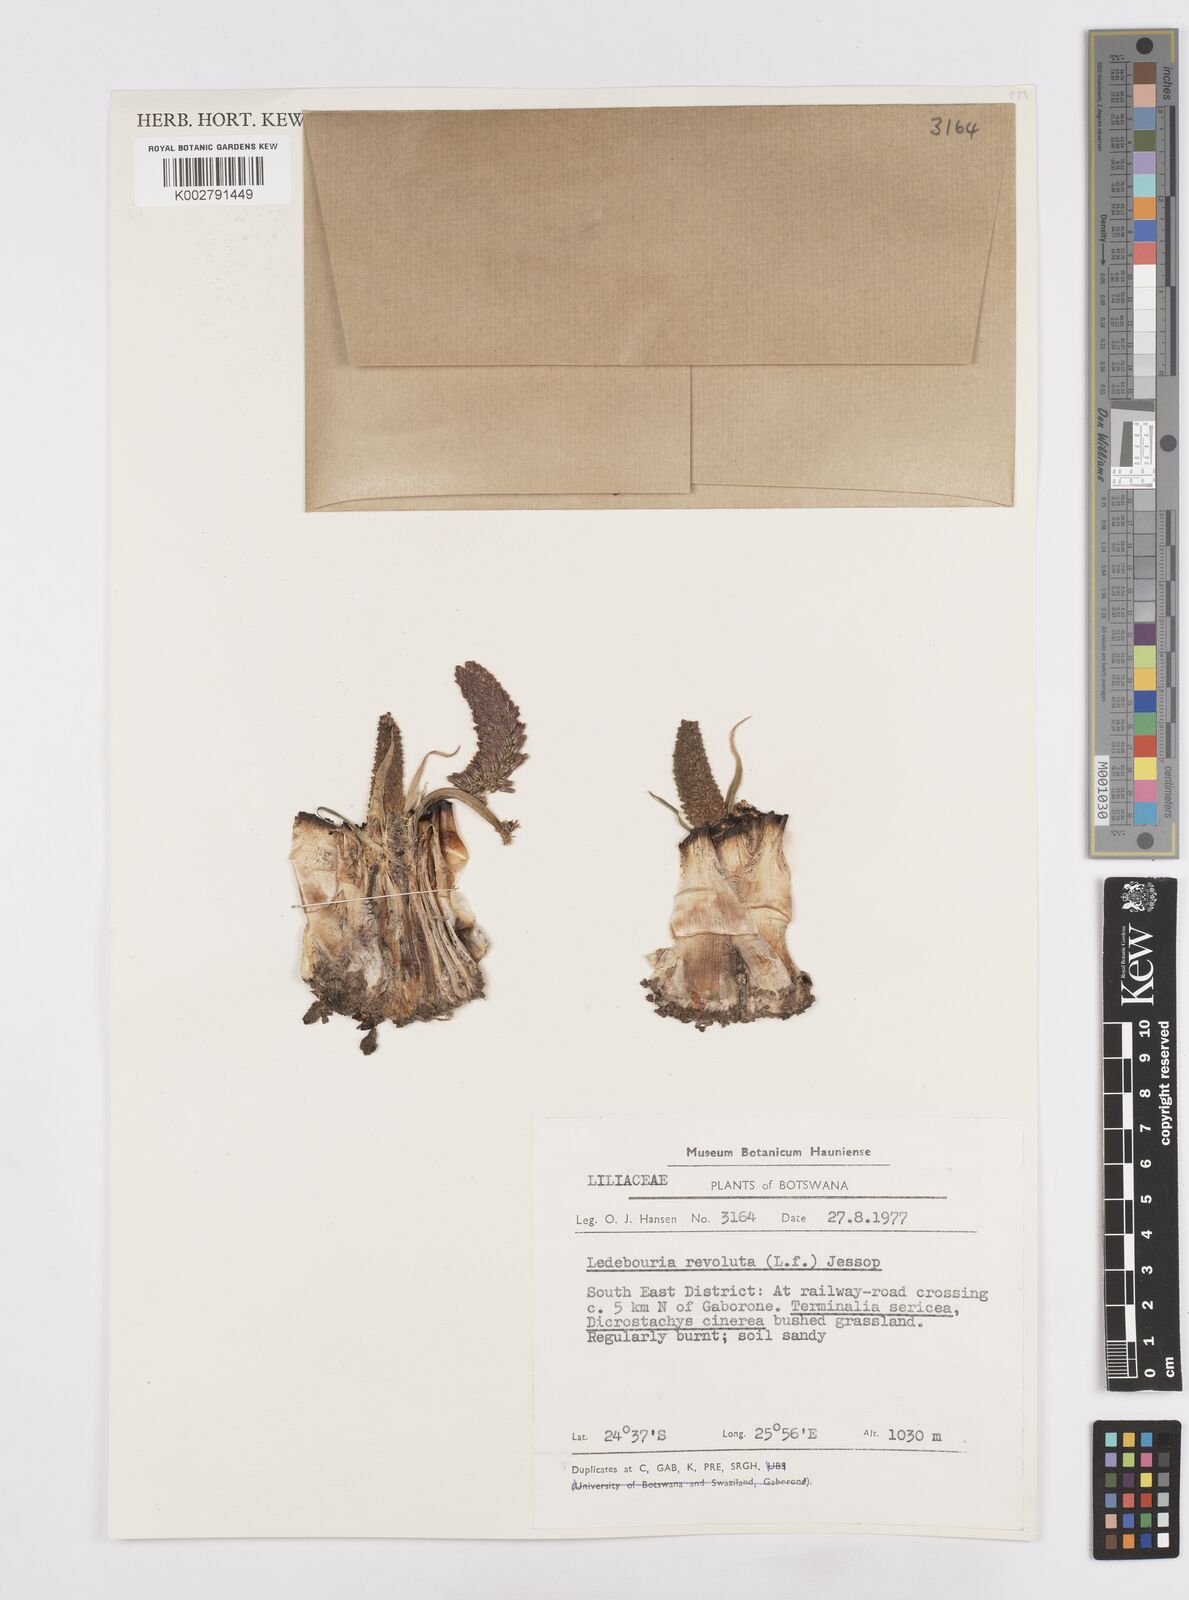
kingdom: Plantae
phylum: Tracheophyta
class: Liliopsida
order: Asparagales
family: Asparagaceae
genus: Ledebouria
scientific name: Ledebouria revoluta
